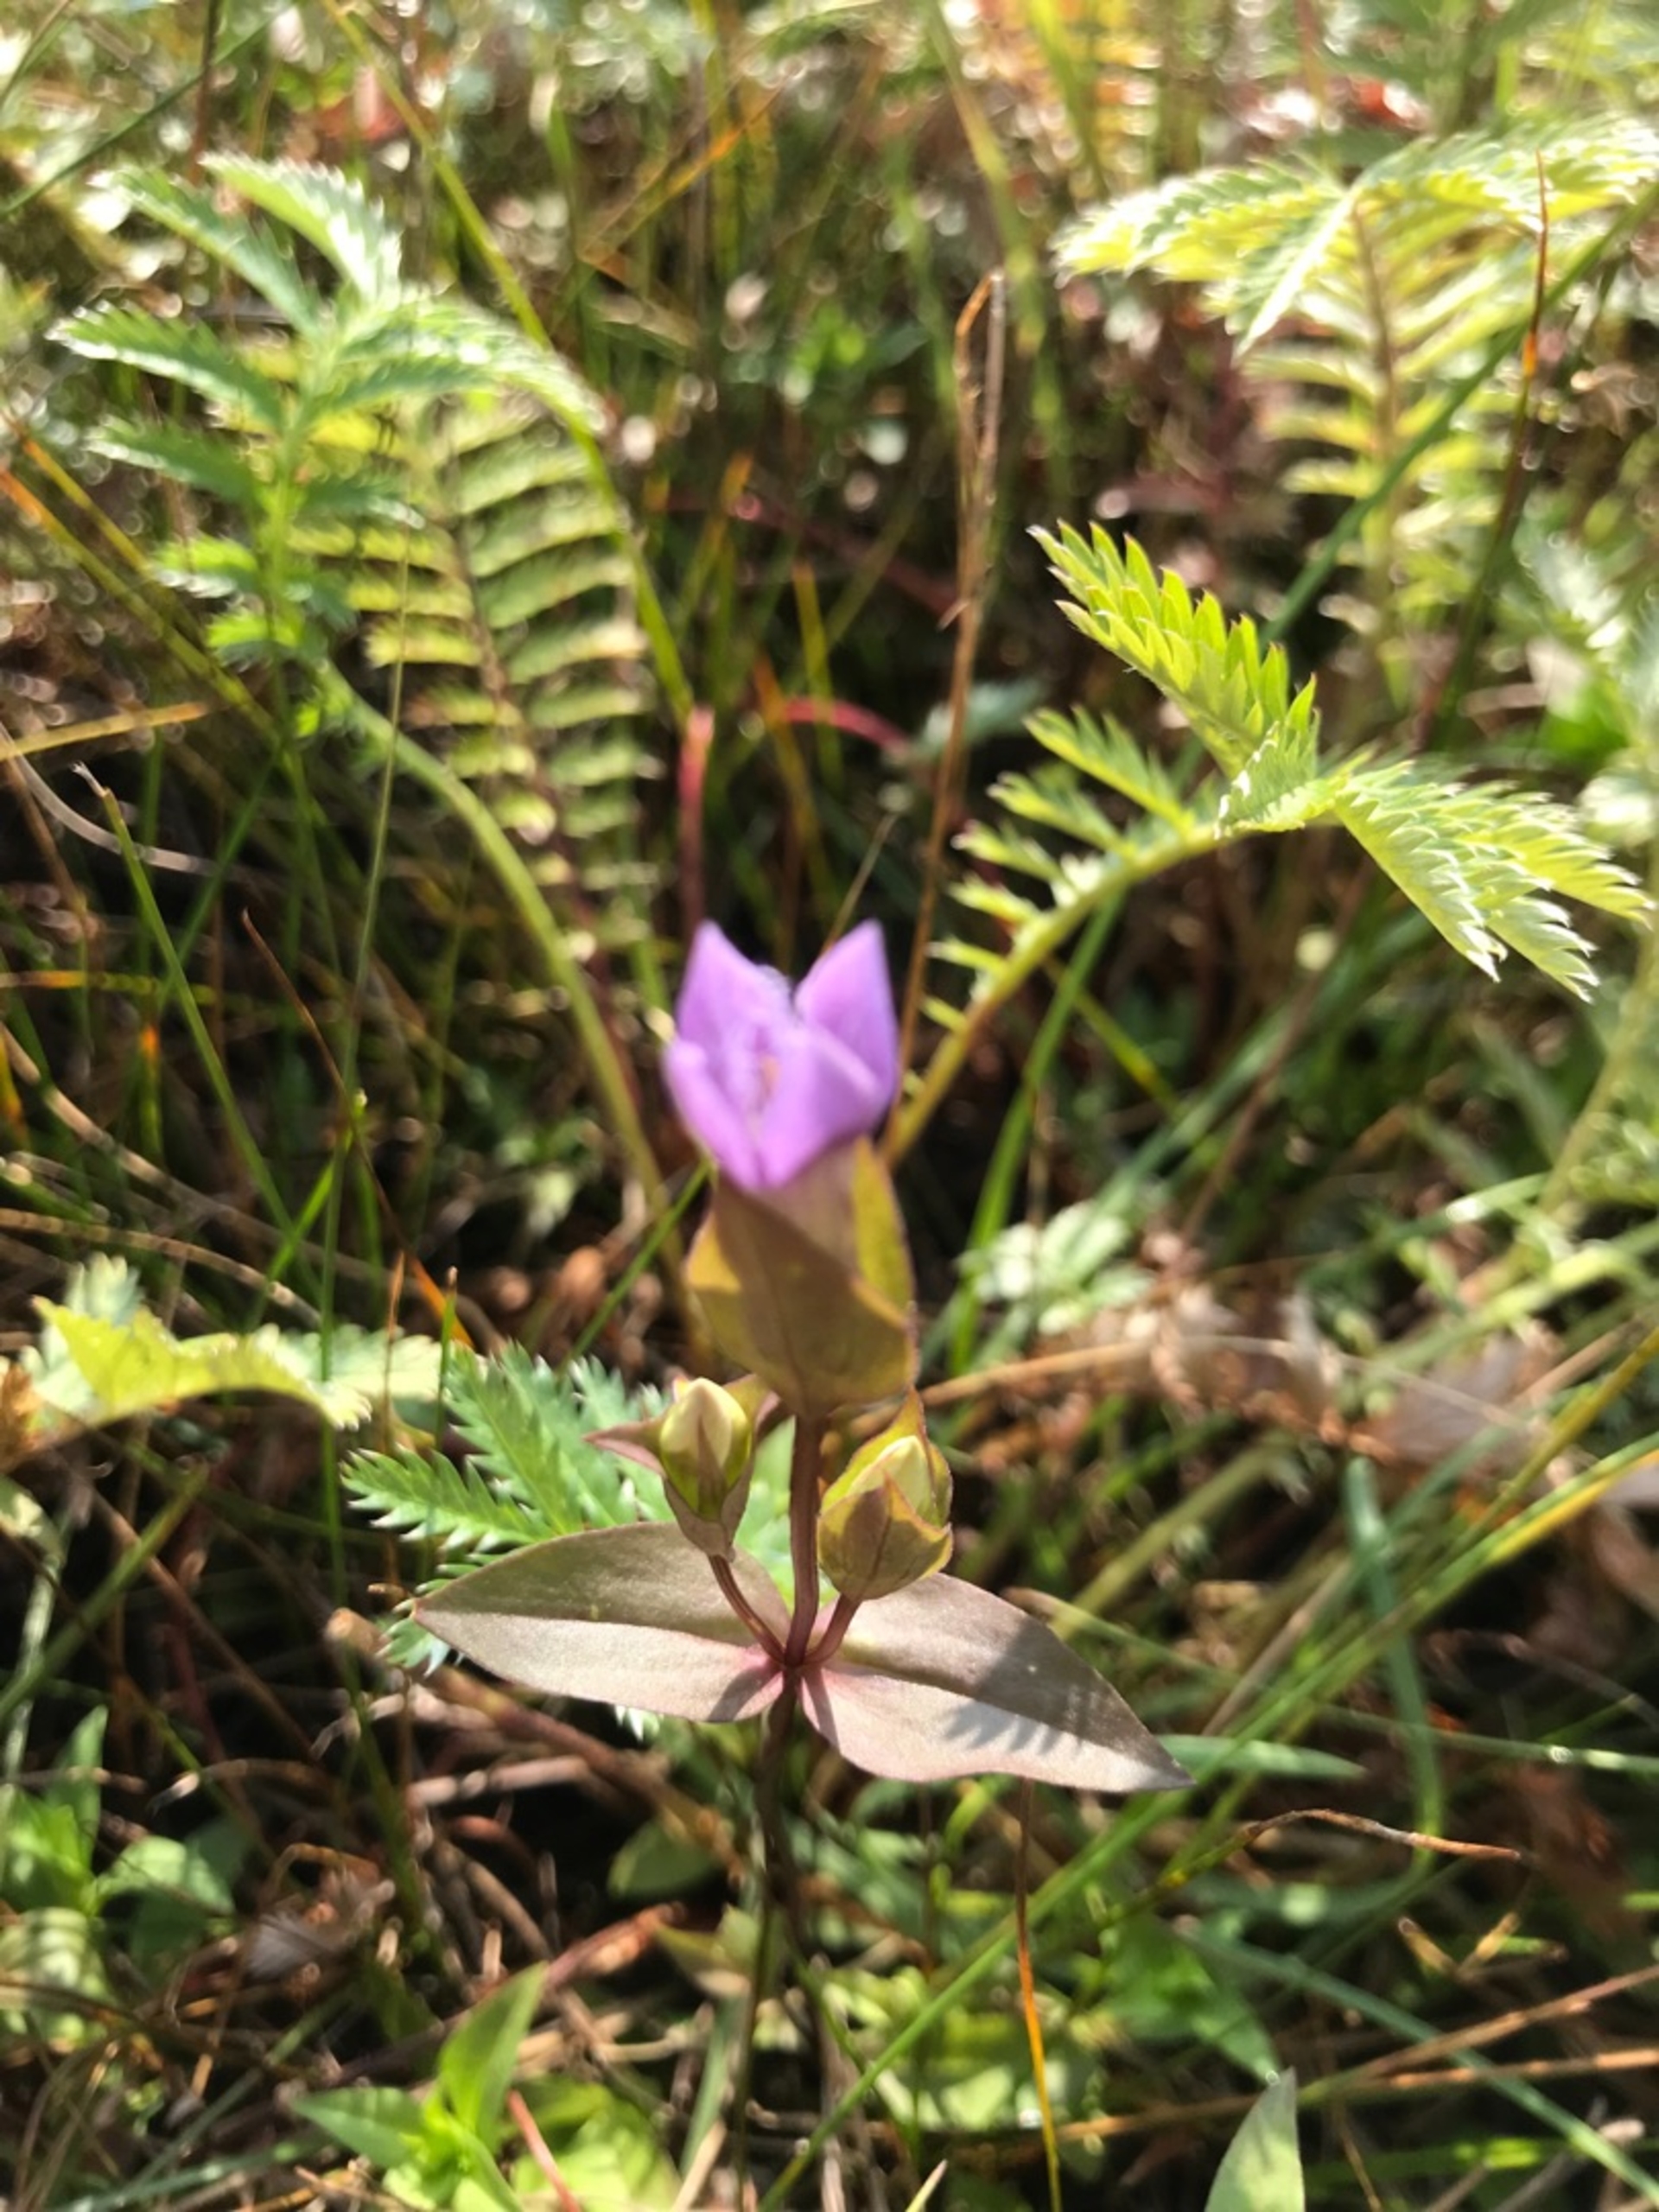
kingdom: Plantae
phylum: Tracheophyta
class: Magnoliopsida
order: Gentianales
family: Gentianaceae
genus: Gentianella
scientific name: Gentianella campestris
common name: Baltisk ensian
